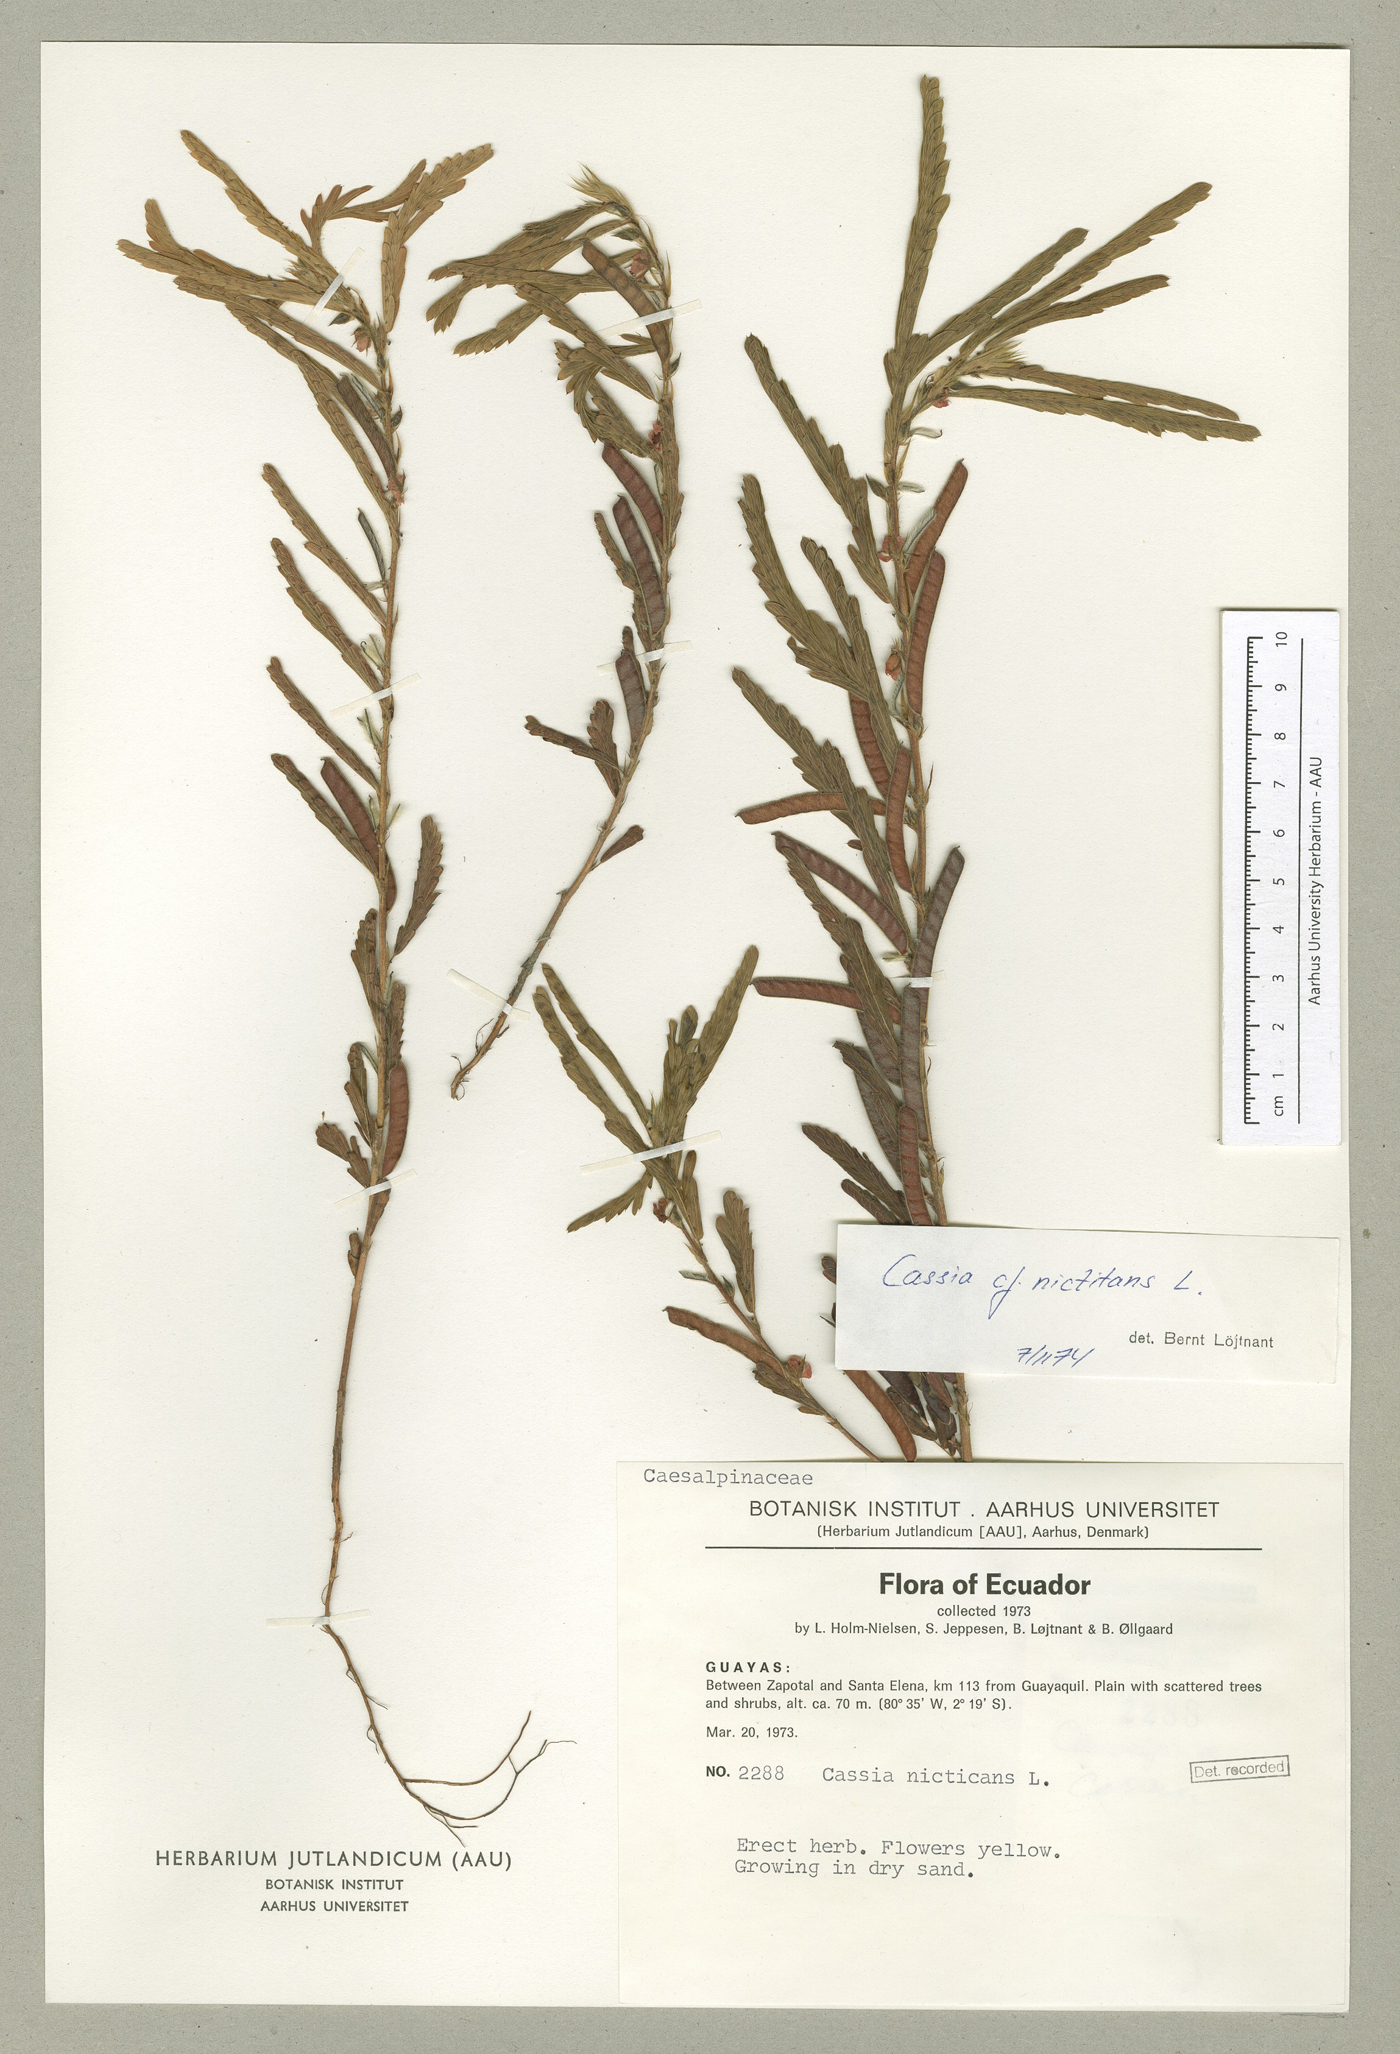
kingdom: Plantae
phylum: Tracheophyta
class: Magnoliopsida
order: Fabales
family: Fabaceae
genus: Chamaecrista
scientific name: Chamaecrista nictitans
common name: Sensitive cassia
